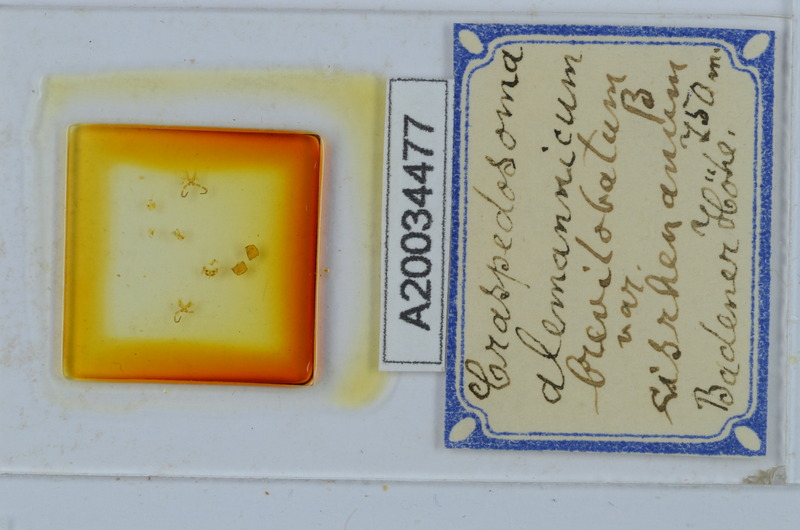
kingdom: Animalia
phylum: Arthropoda
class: Diplopoda
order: Chordeumatida
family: Craspedosomatidae
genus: Craspedosoma
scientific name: Craspedosoma rawlinsii
